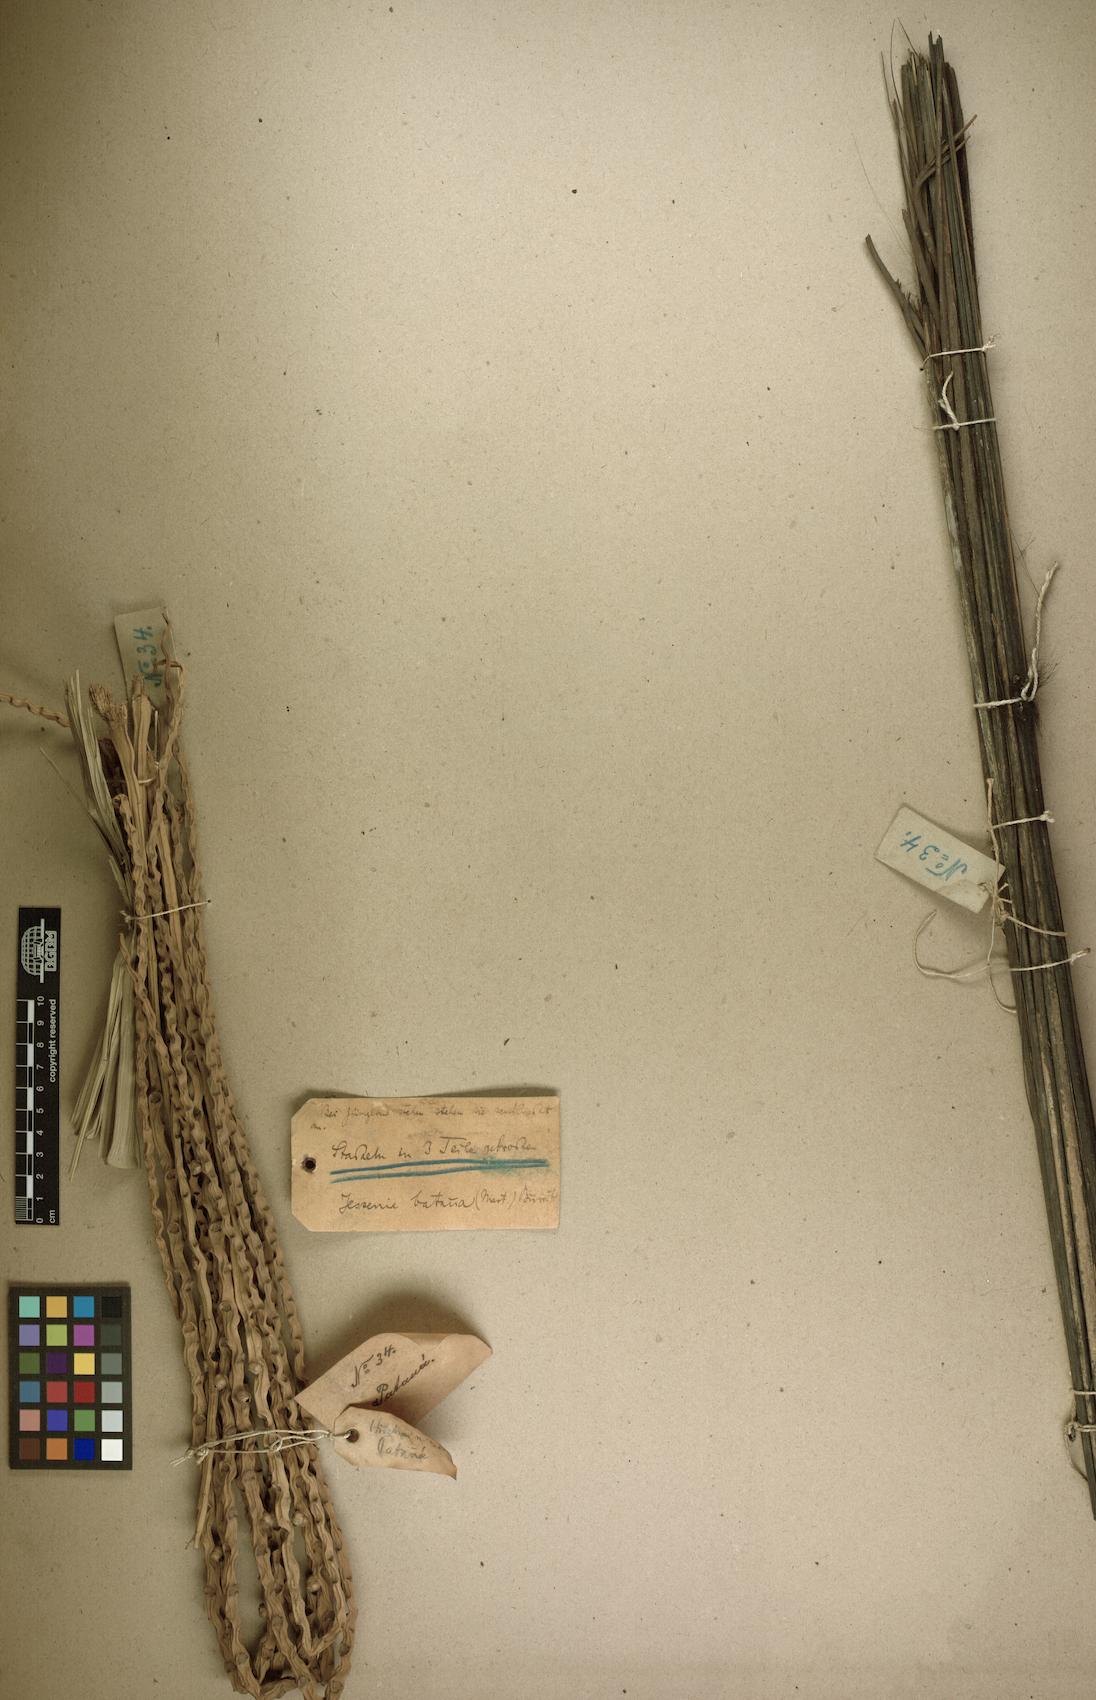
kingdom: Plantae
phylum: Tracheophyta
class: Liliopsida
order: Arecales
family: Arecaceae
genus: Oenocarpus
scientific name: Oenocarpus bataua
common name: Bataua palm
